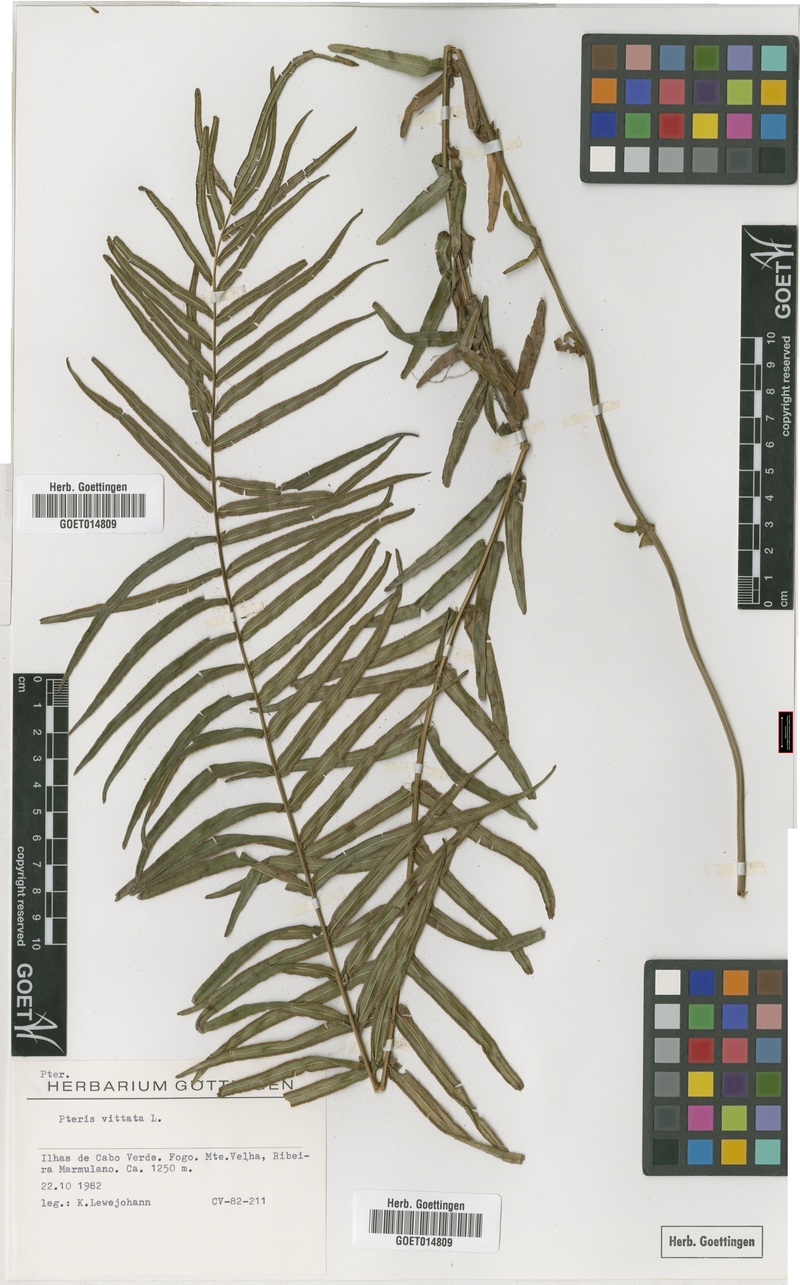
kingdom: Plantae
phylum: Tracheophyta
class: Polypodiopsida
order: Polypodiales
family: Pteridaceae
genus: Pteris
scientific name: Pteris vittata
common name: Ladder brake
